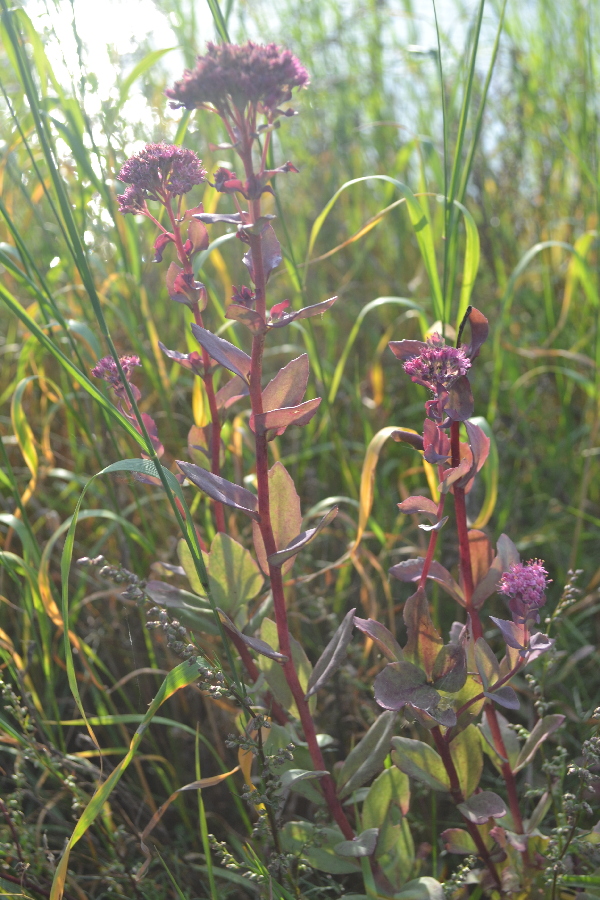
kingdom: Plantae
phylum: Tracheophyta
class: Magnoliopsida
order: Saxifragales
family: Crassulaceae
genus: Hylotelephium
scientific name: Hylotelephium spectabile
